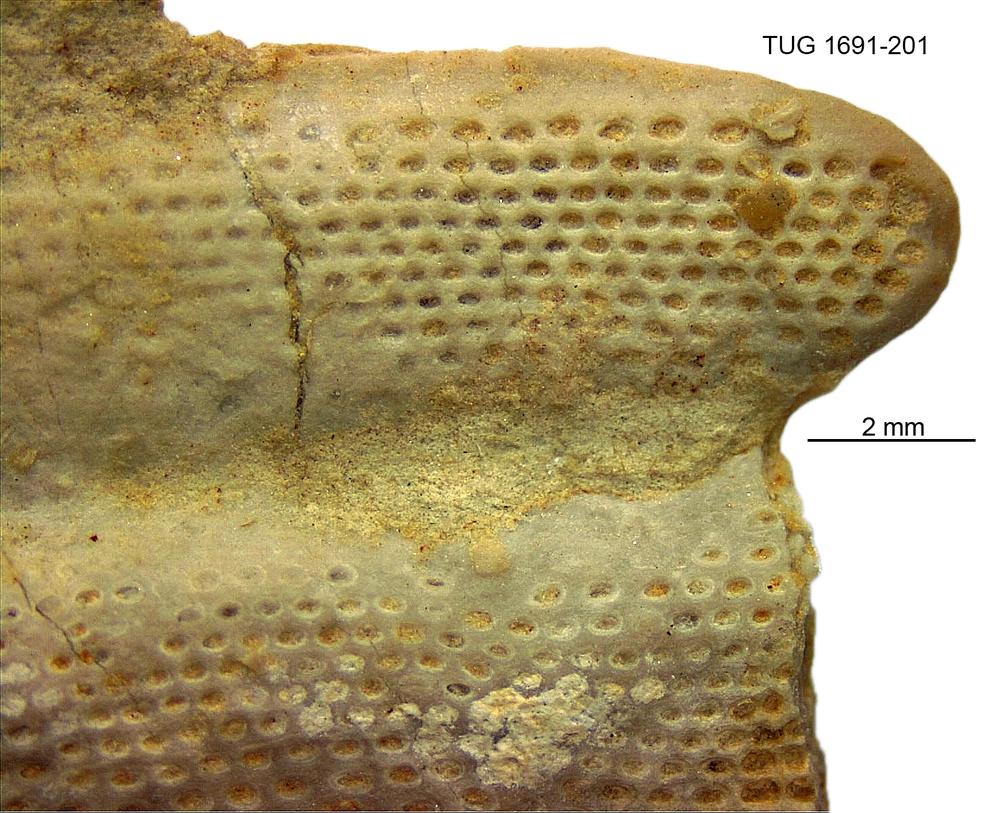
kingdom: Animalia
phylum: Bryozoa
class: Stenolaemata
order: Cystoporida
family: Rhinoporidae
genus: Lichenalia
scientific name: Lichenalia
